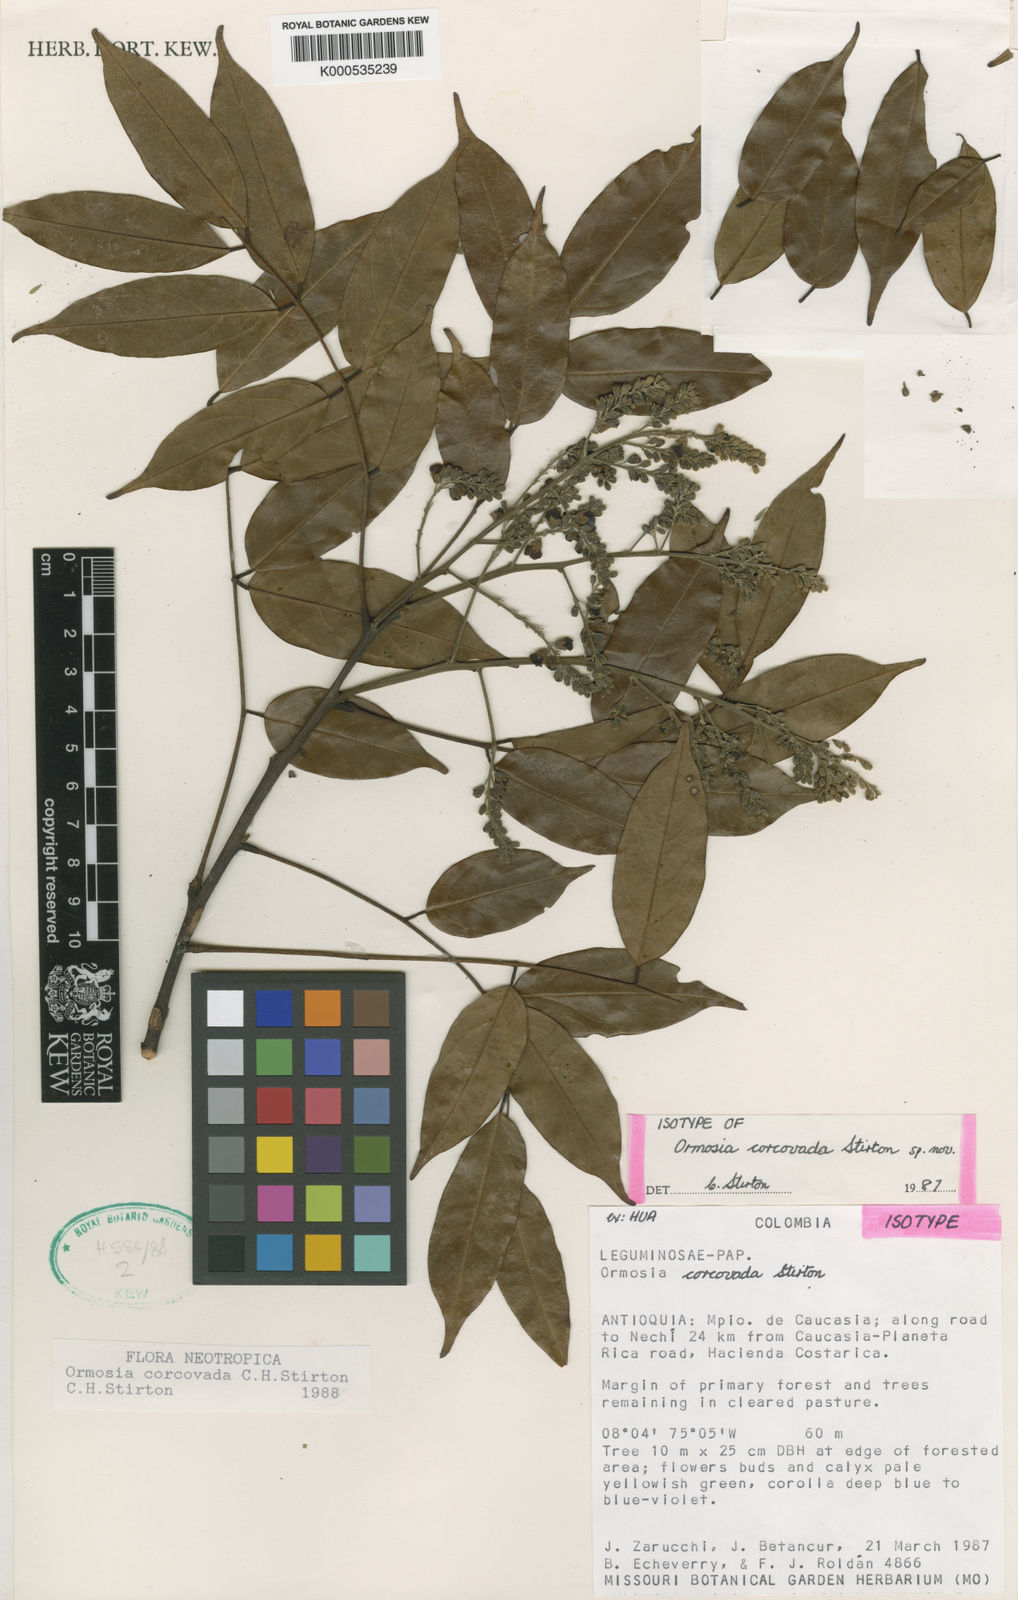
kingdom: Plantae
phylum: Tracheophyta
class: Magnoliopsida
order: Fabales
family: Fabaceae
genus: Ormosia
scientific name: Ormosia
